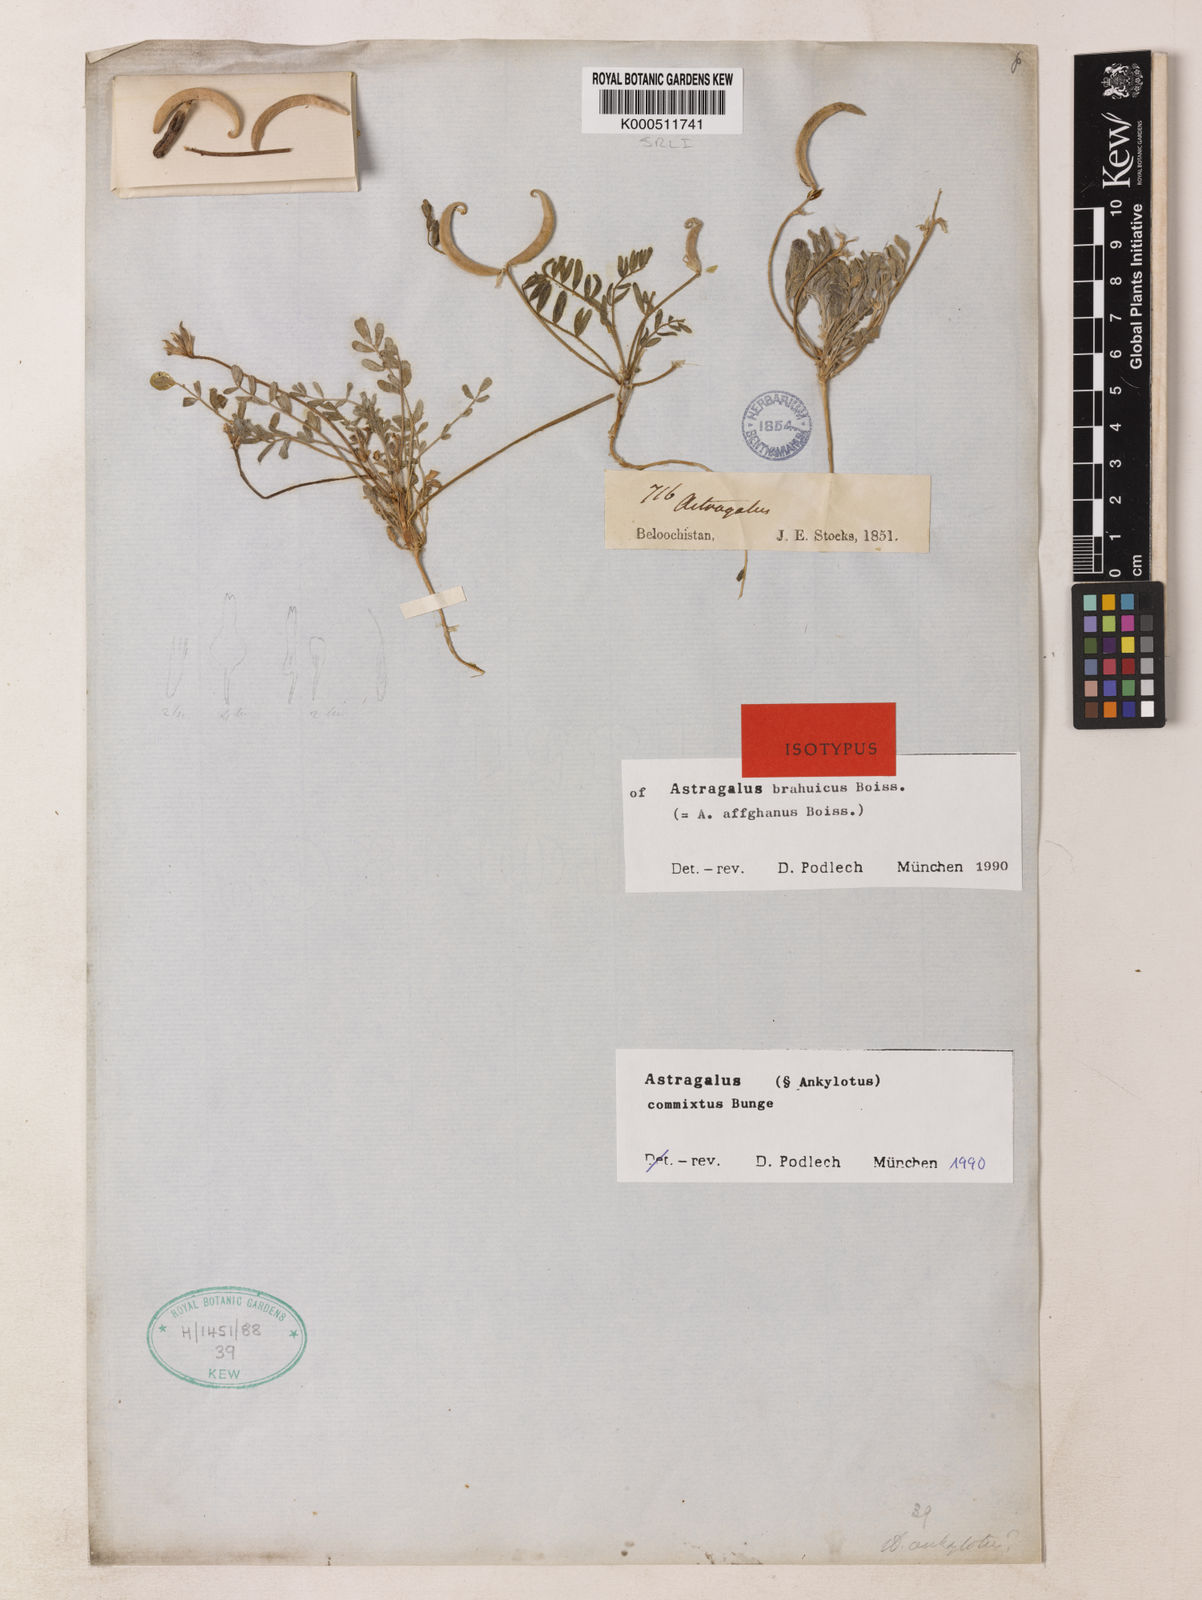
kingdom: Plantae
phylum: Tracheophyta
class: Magnoliopsida
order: Fabales
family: Fabaceae
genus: Astragalus
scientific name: Astragalus commixtus
